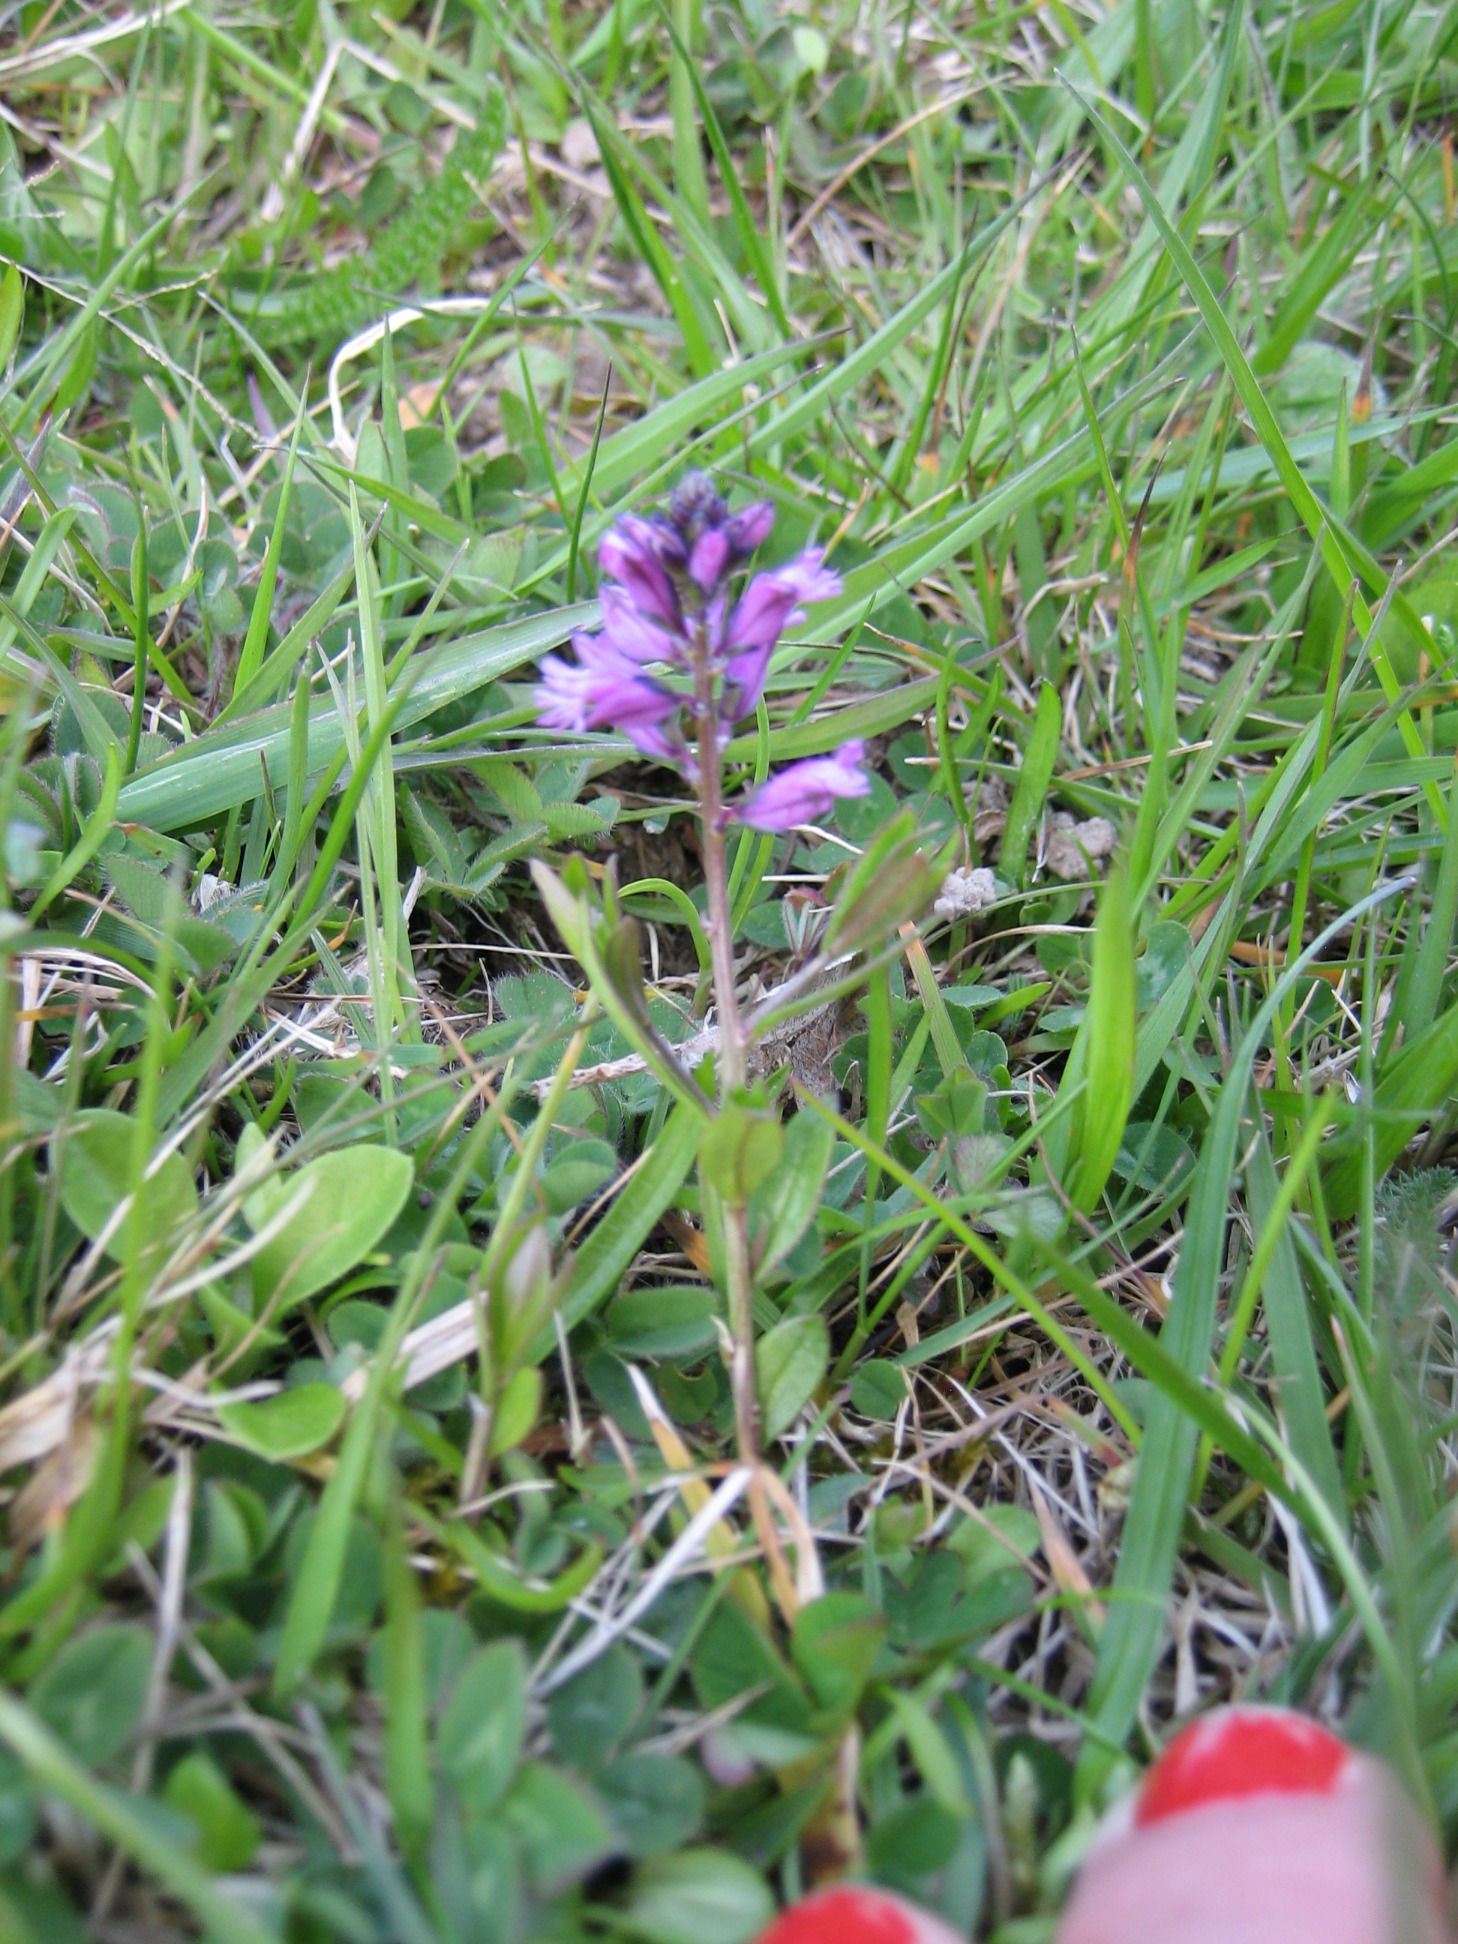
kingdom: Plantae
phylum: Tracheophyta
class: Magnoliopsida
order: Fabales
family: Polygalaceae
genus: Polygala
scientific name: Polygala vulgaris
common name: Almindelig mælkeurt
